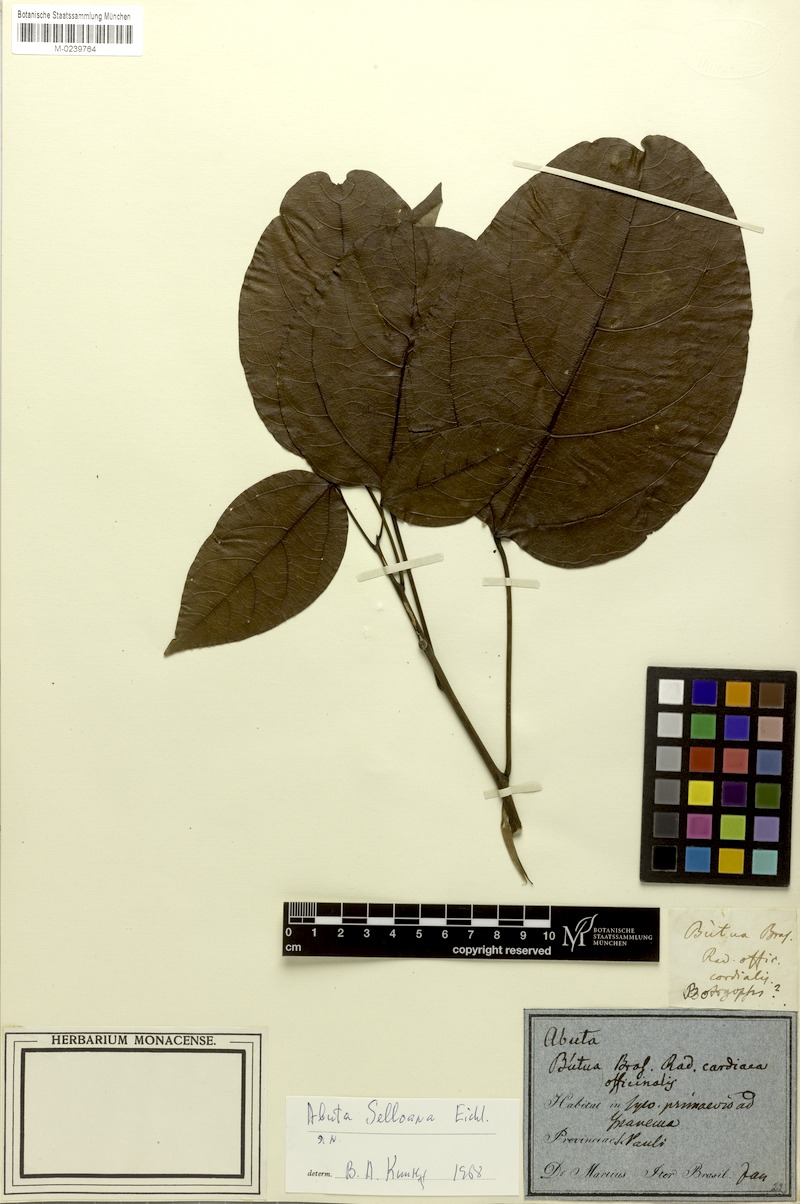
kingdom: Plantae
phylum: Tracheophyta
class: Magnoliopsida
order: Ranunculales
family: Menispermaceae
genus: Abuta
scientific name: Abuta selloana
